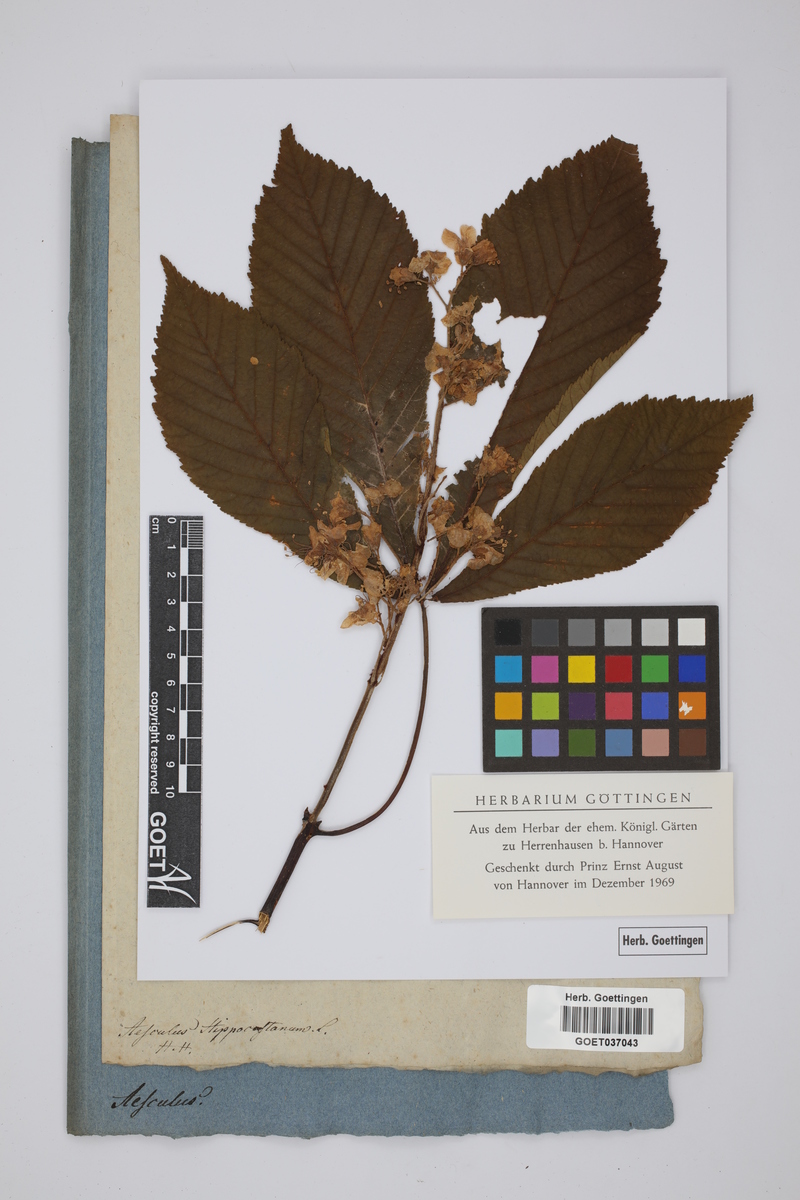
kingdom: Plantae
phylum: Tracheophyta
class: Magnoliopsida
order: Sapindales
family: Sapindaceae
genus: Aesculus
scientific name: Aesculus hippocastanum
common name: Horse-chestnut
